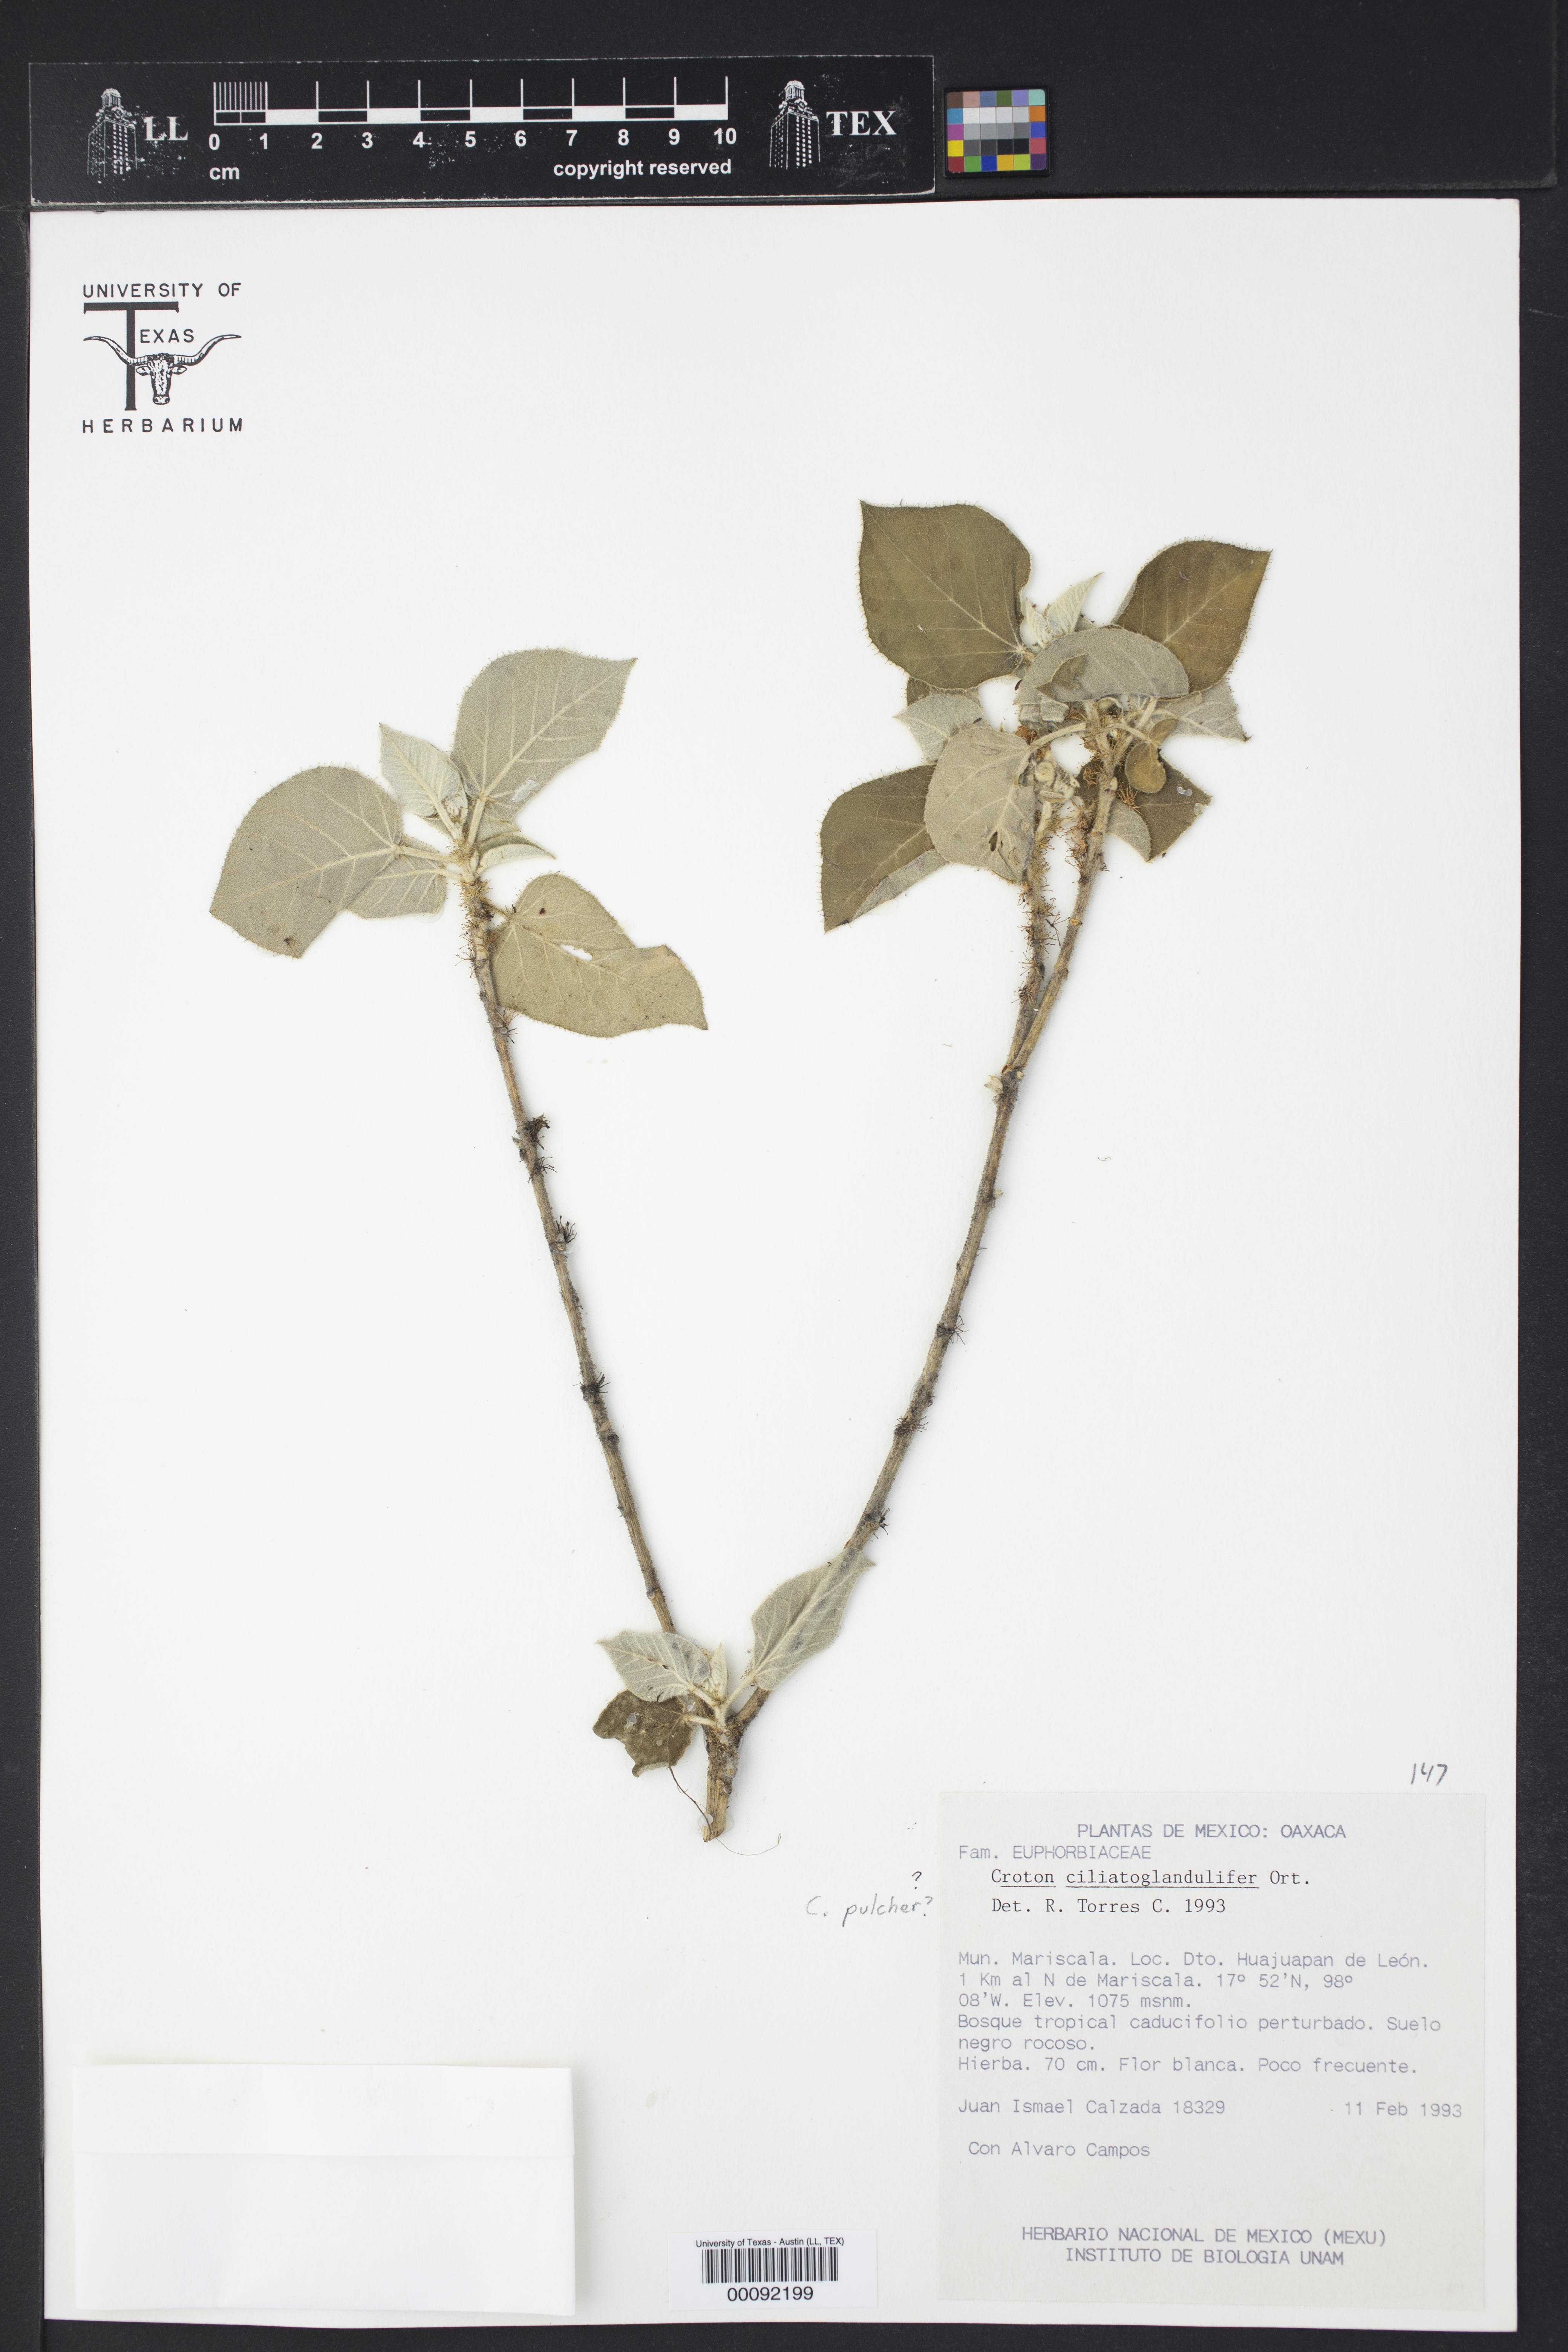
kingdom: Plantae
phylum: Tracheophyta
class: Magnoliopsida
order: Malpighiales
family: Euphorbiaceae
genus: Croton
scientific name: Croton ciliatoglandulifer
